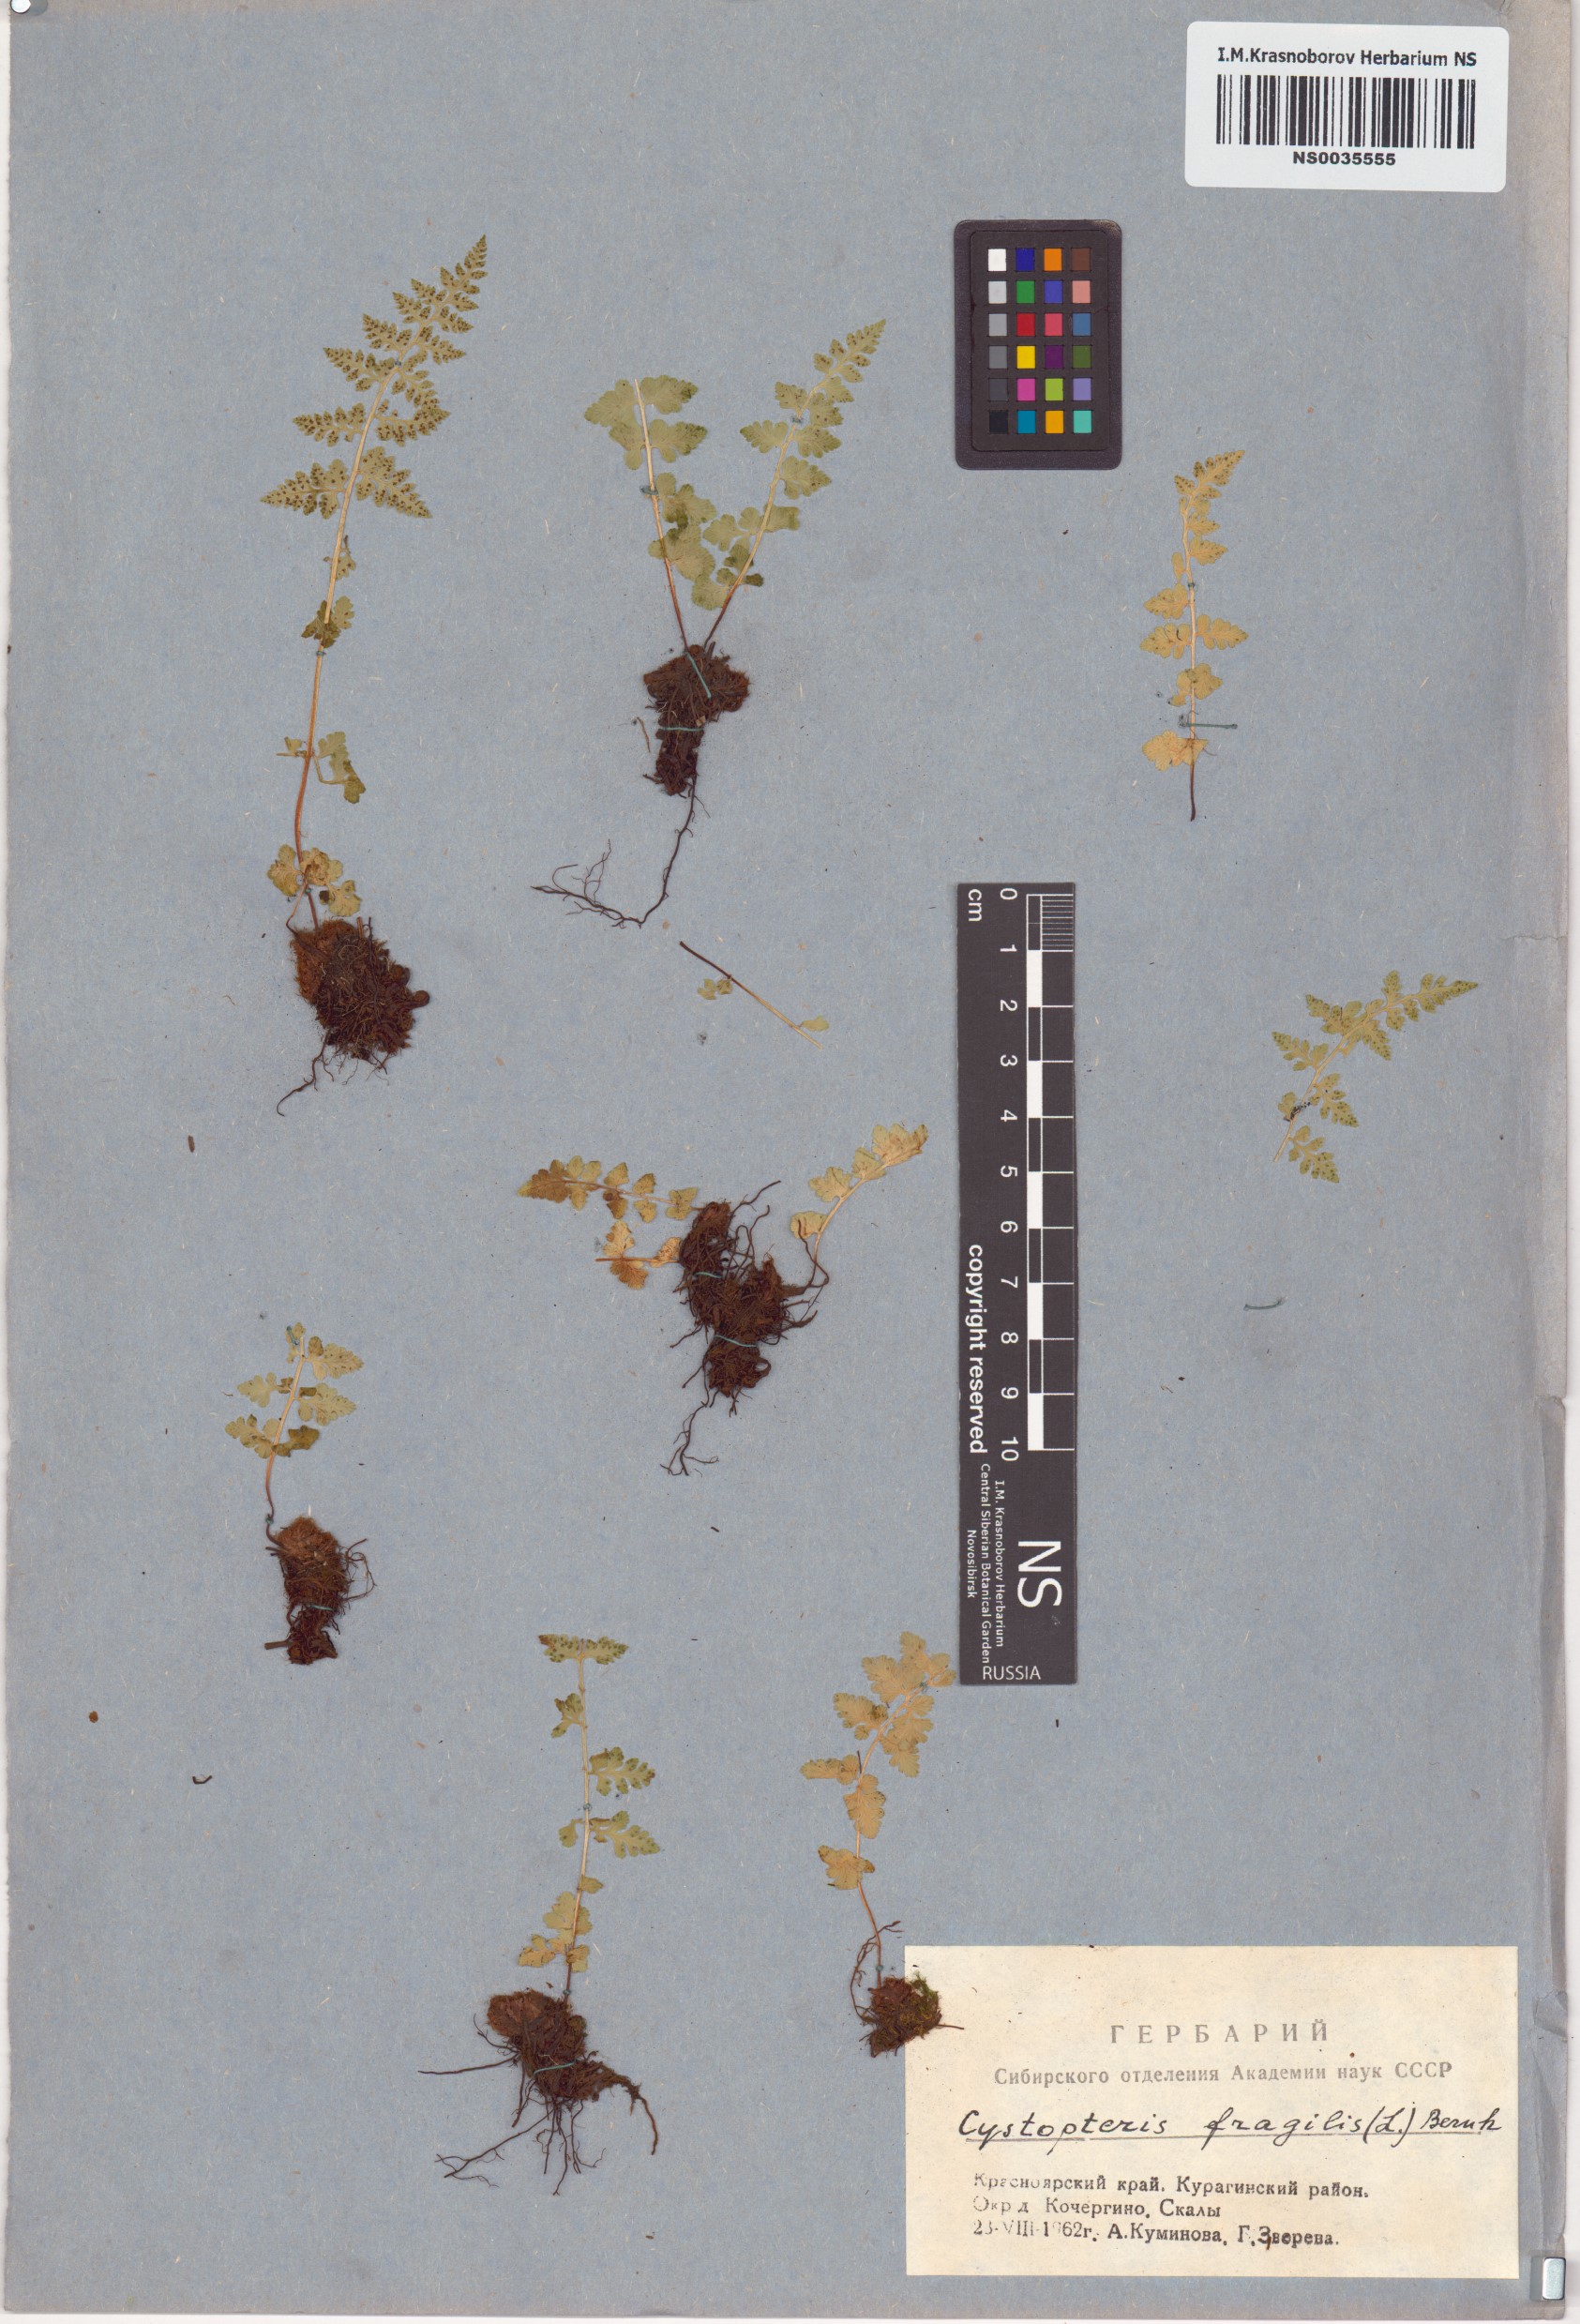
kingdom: Plantae
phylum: Tracheophyta
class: Polypodiopsida
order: Polypodiales
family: Cystopteridaceae
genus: Cystopteris
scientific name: Cystopteris fragilis
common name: Brittle bladder fern
